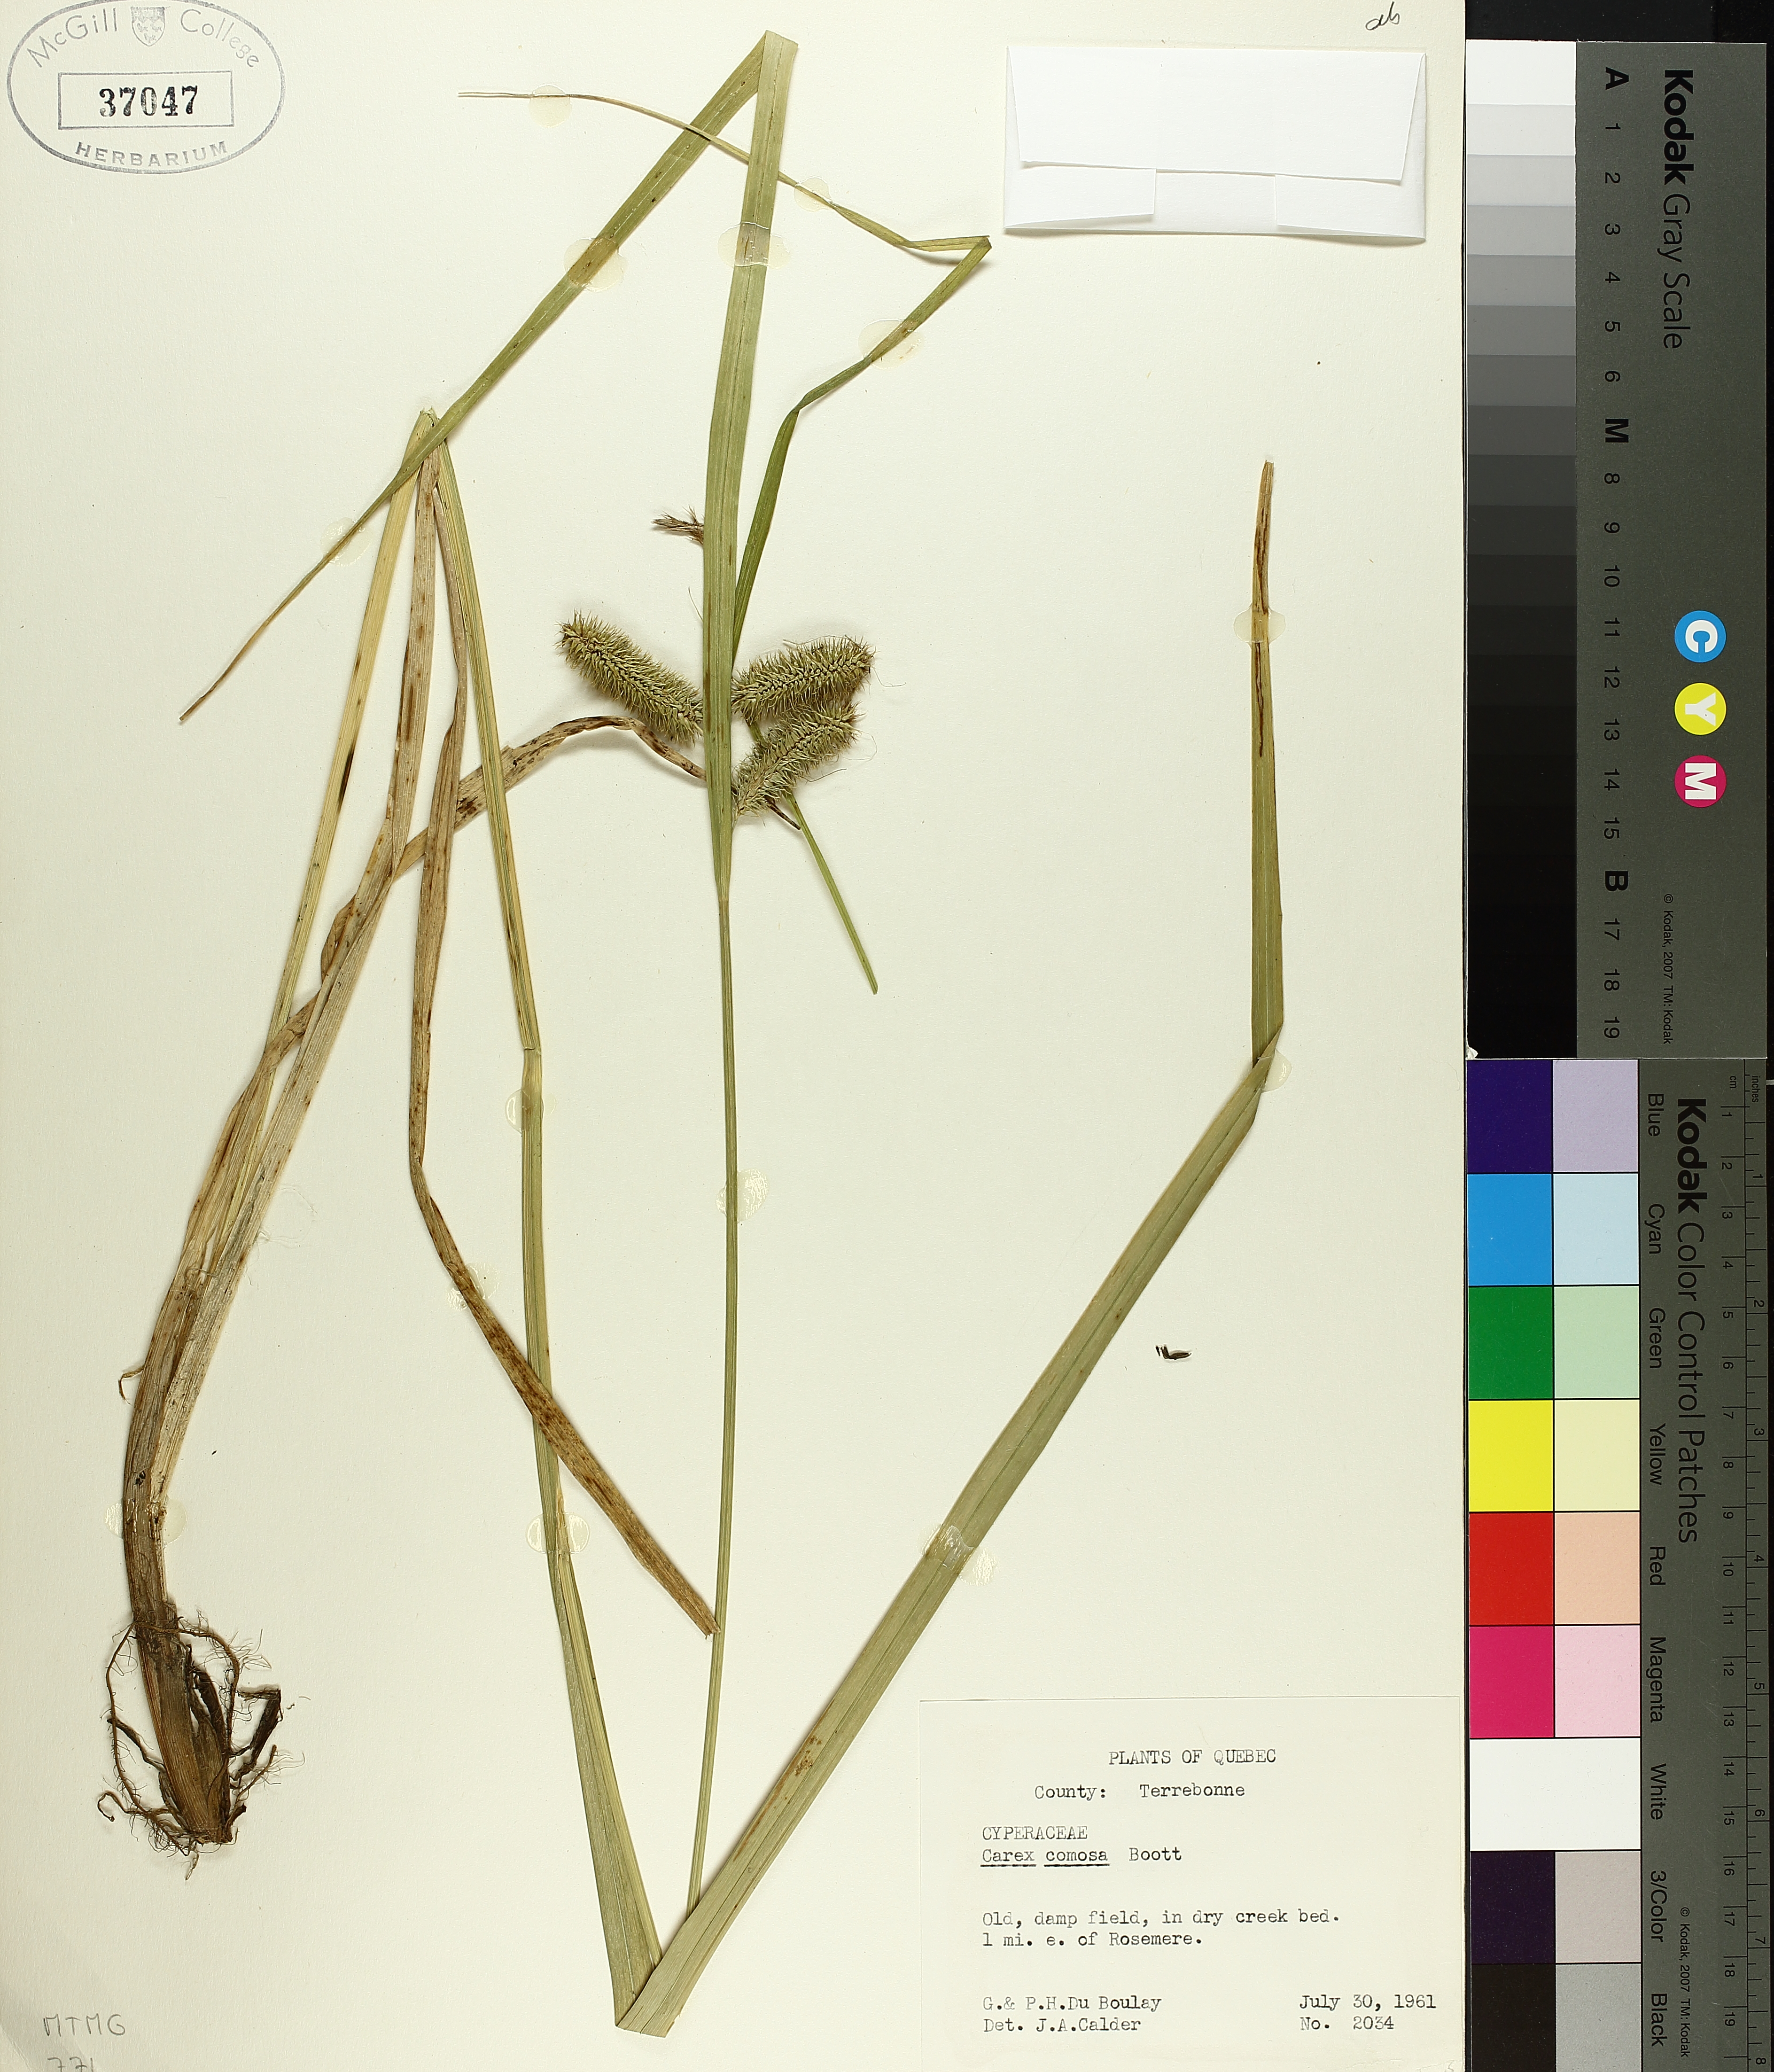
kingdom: Plantae
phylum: Tracheophyta
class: Liliopsida
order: Poales
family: Cyperaceae
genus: Carex
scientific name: Carex comosa
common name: Bristly sedge
